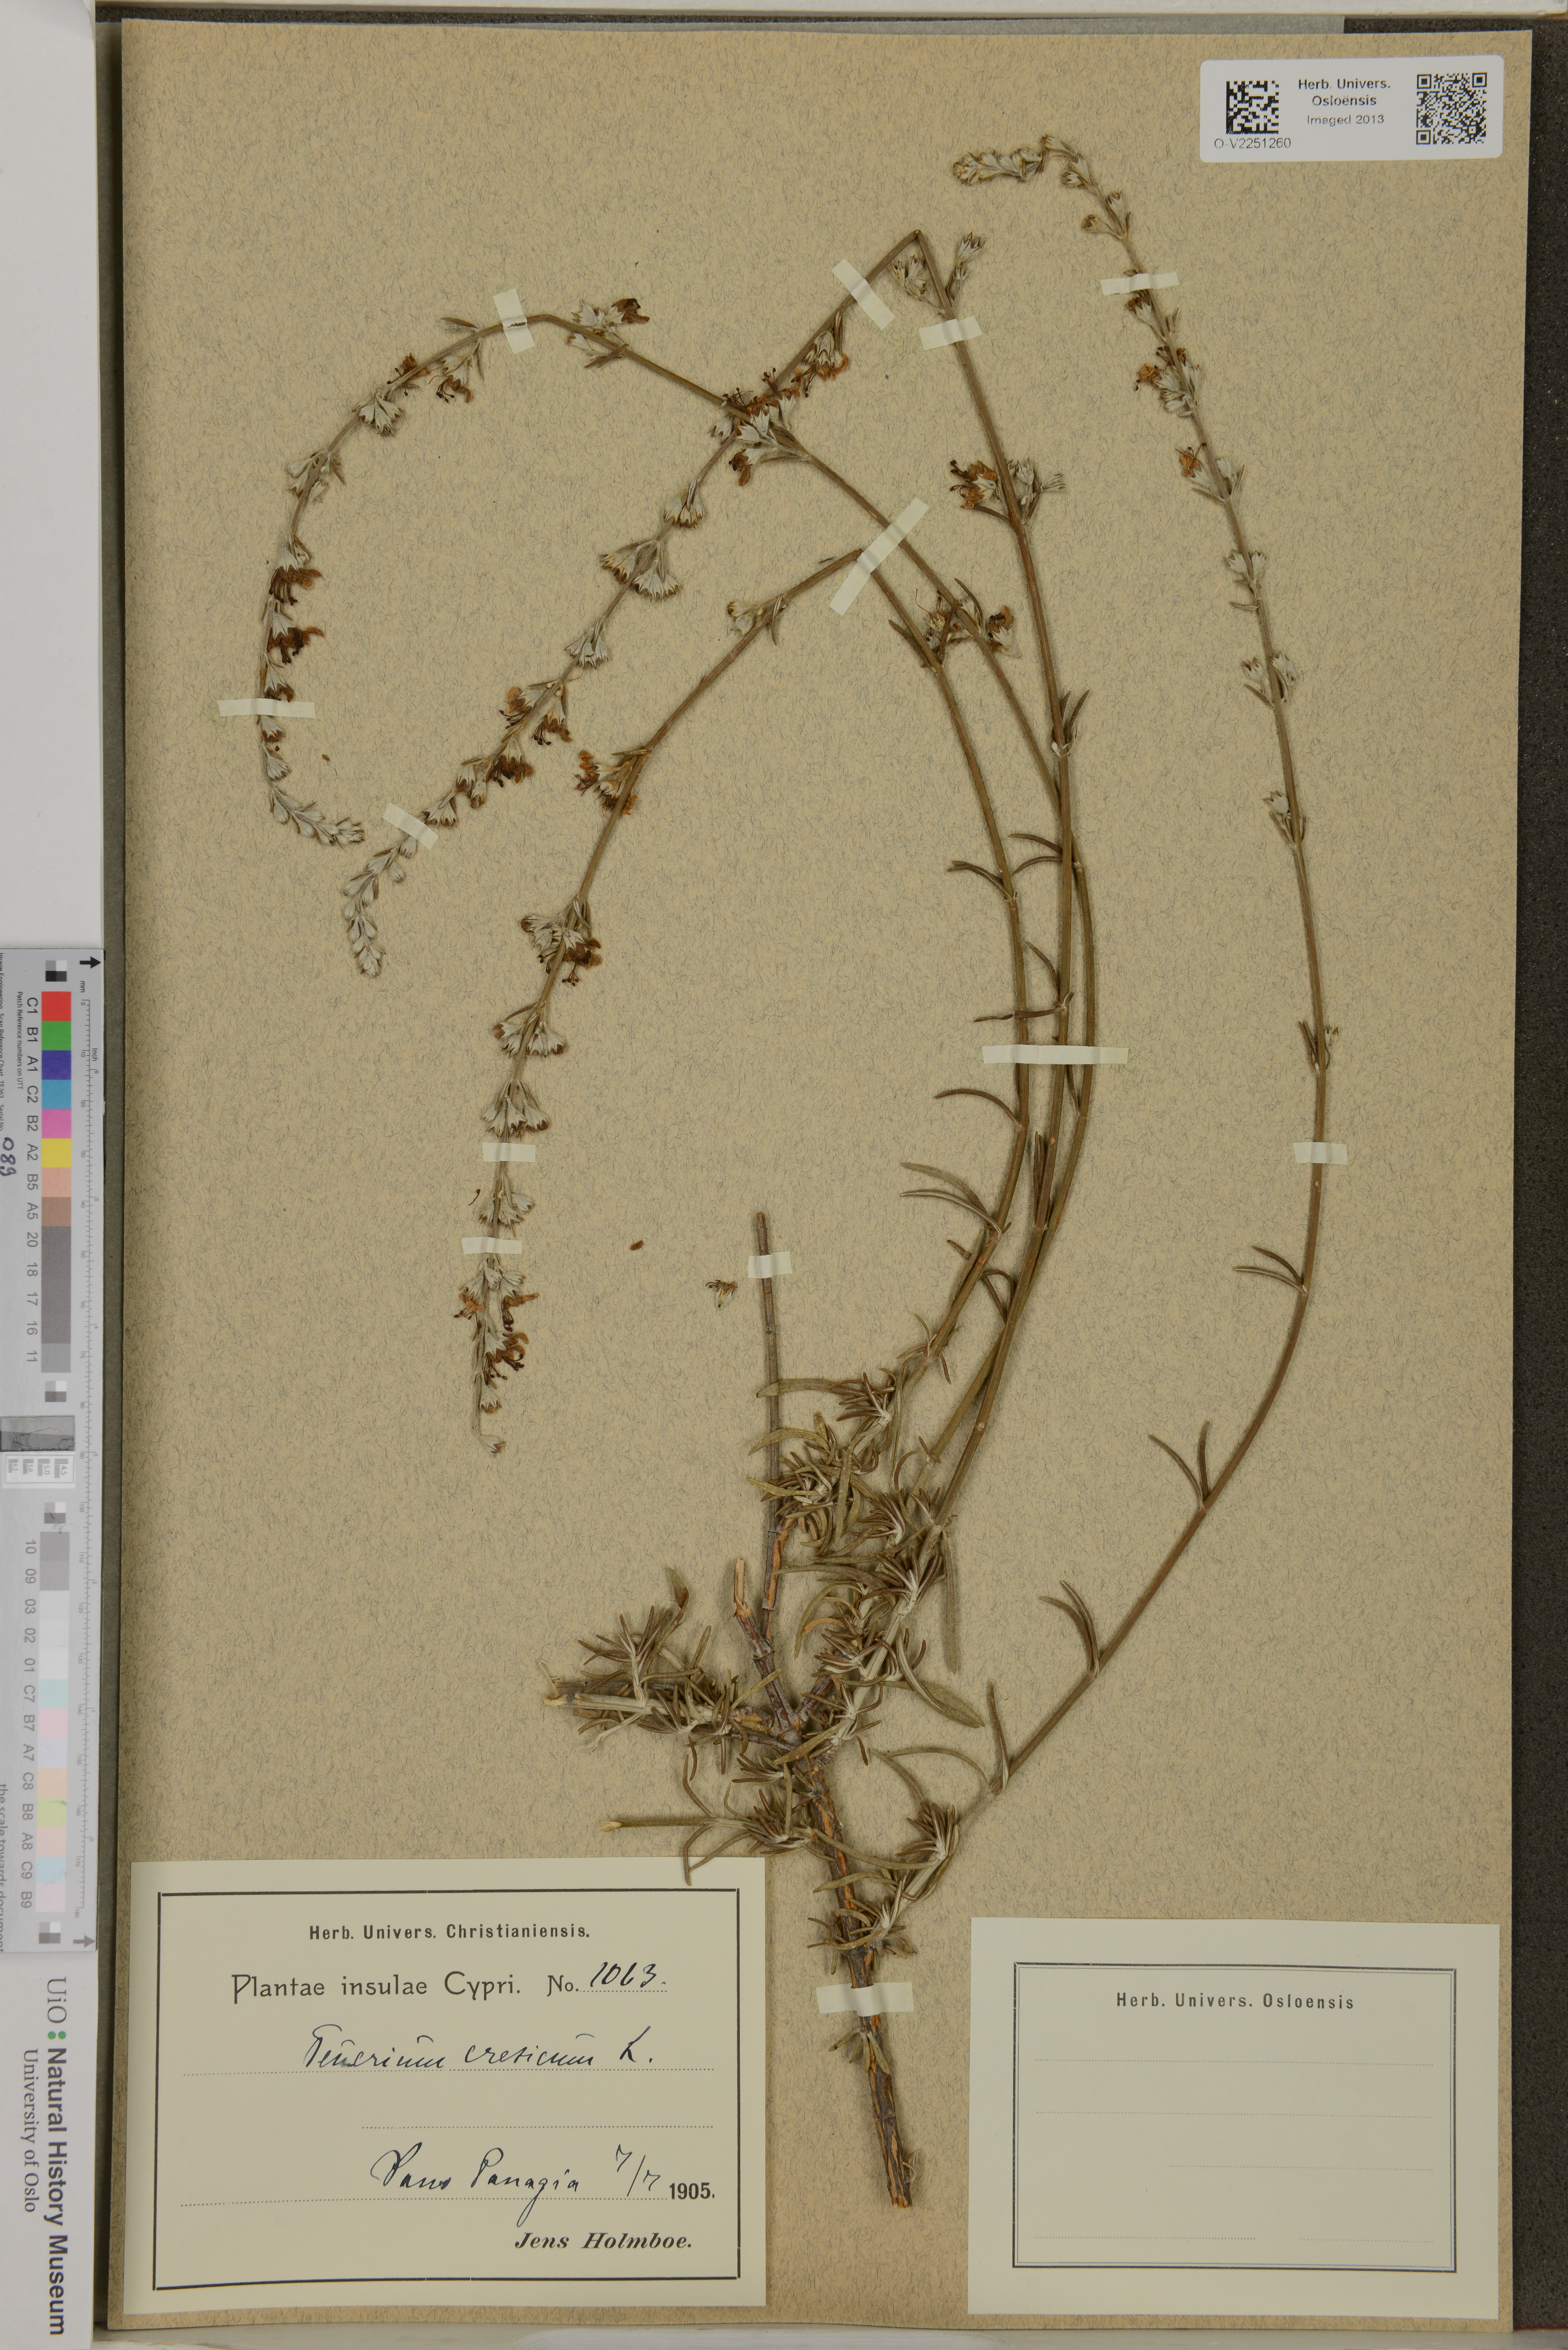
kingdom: Plantae
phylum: Tracheophyta
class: Magnoliopsida
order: Lamiales
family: Lamiaceae
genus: Teucrium
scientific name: Teucrium creticum
